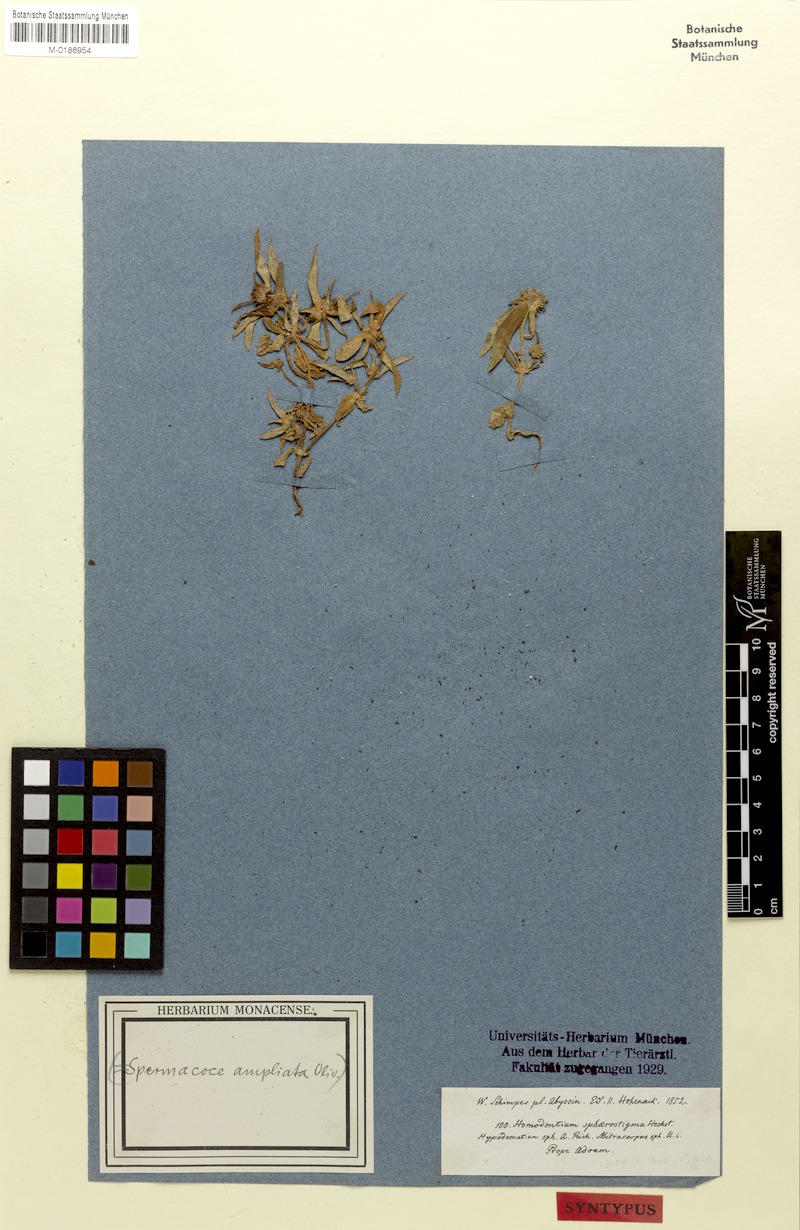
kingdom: Plantae
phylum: Tracheophyta
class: Magnoliopsida
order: Gentianales
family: Rubiaceae
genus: Spermacoce
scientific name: Spermacoce sphaerostigma
